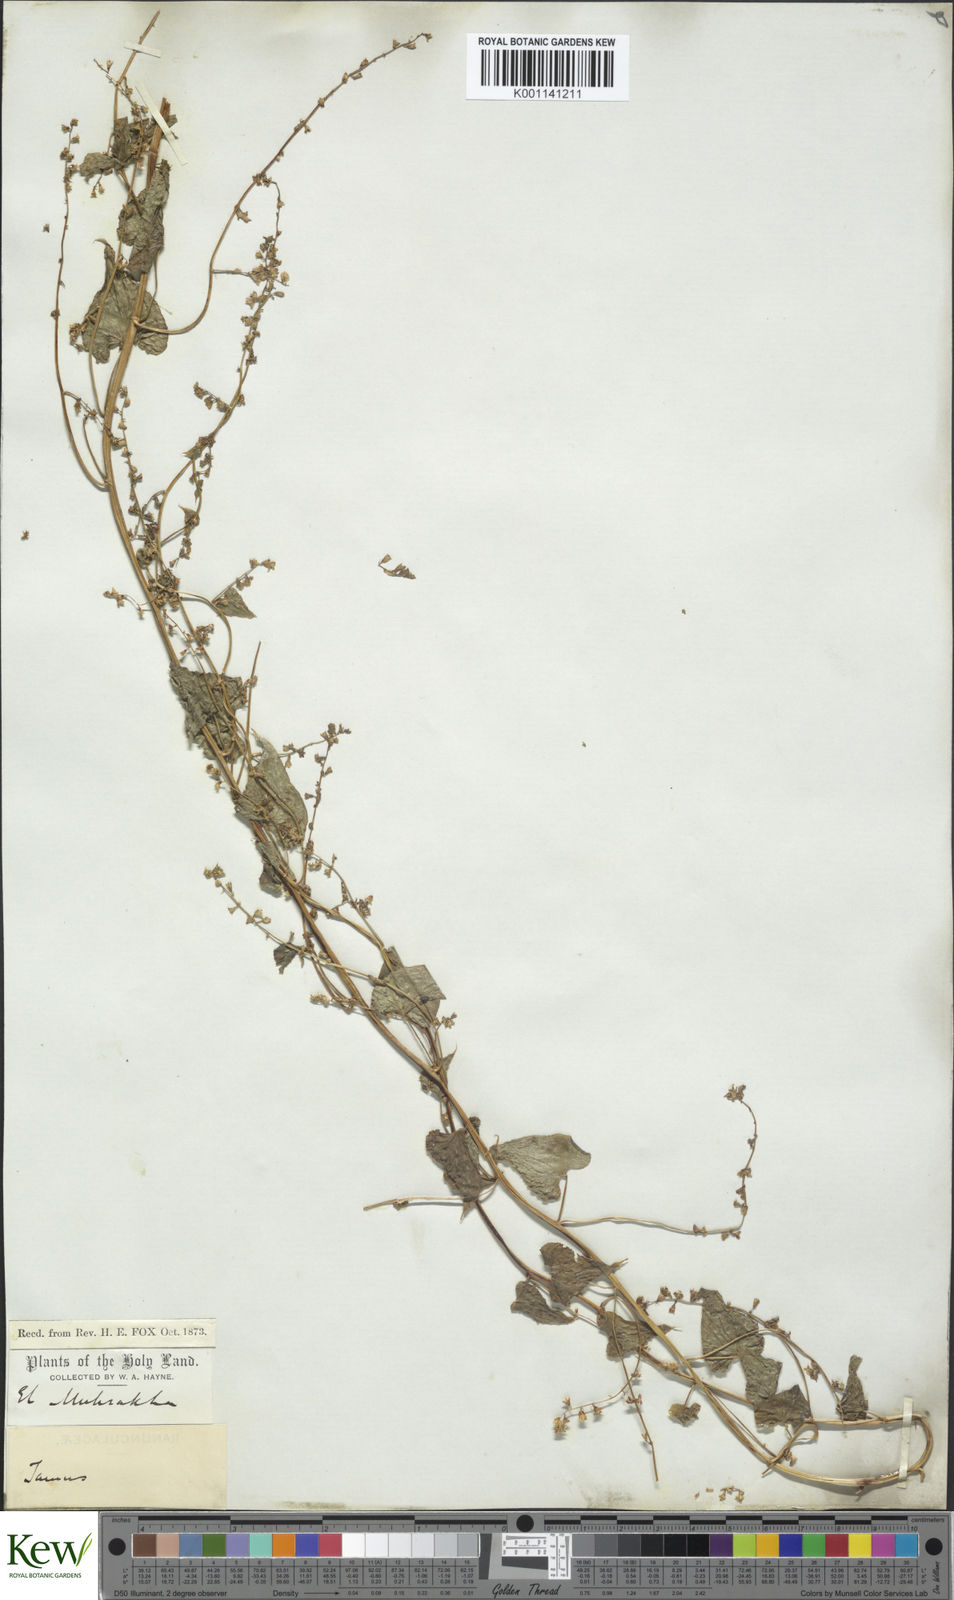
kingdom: Plantae
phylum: Tracheophyta
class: Liliopsida
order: Dioscoreales
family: Dioscoreaceae
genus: Dioscorea
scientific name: Dioscorea communis
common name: Black-bindweed
